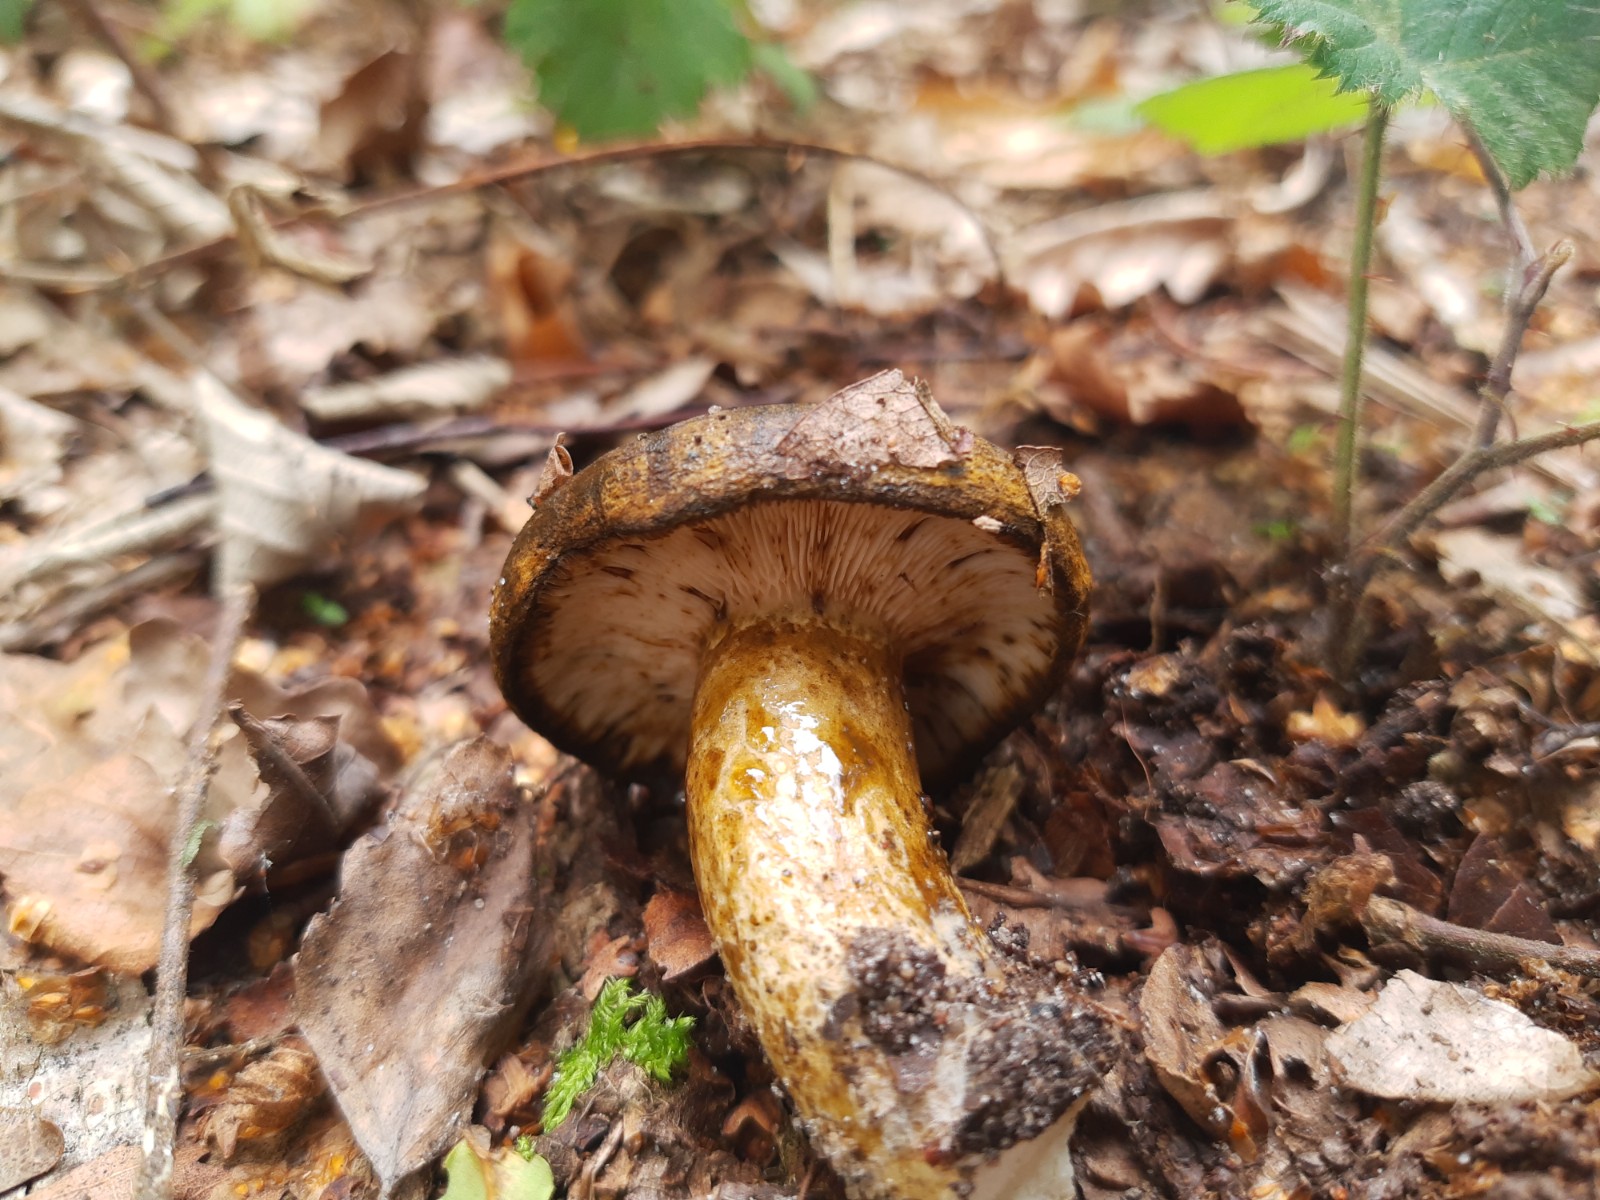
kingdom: Fungi
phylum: Basidiomycota
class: Agaricomycetes
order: Russulales
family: Russulaceae
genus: Lactarius
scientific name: Lactarius necator
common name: manddraber-mælkehat
